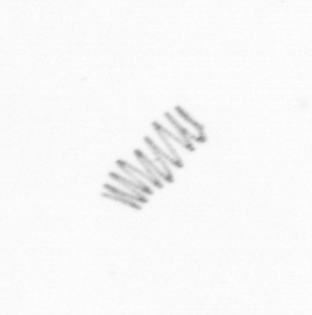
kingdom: Chromista
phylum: Ochrophyta
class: Bacillariophyceae
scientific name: Bacillariophyceae
